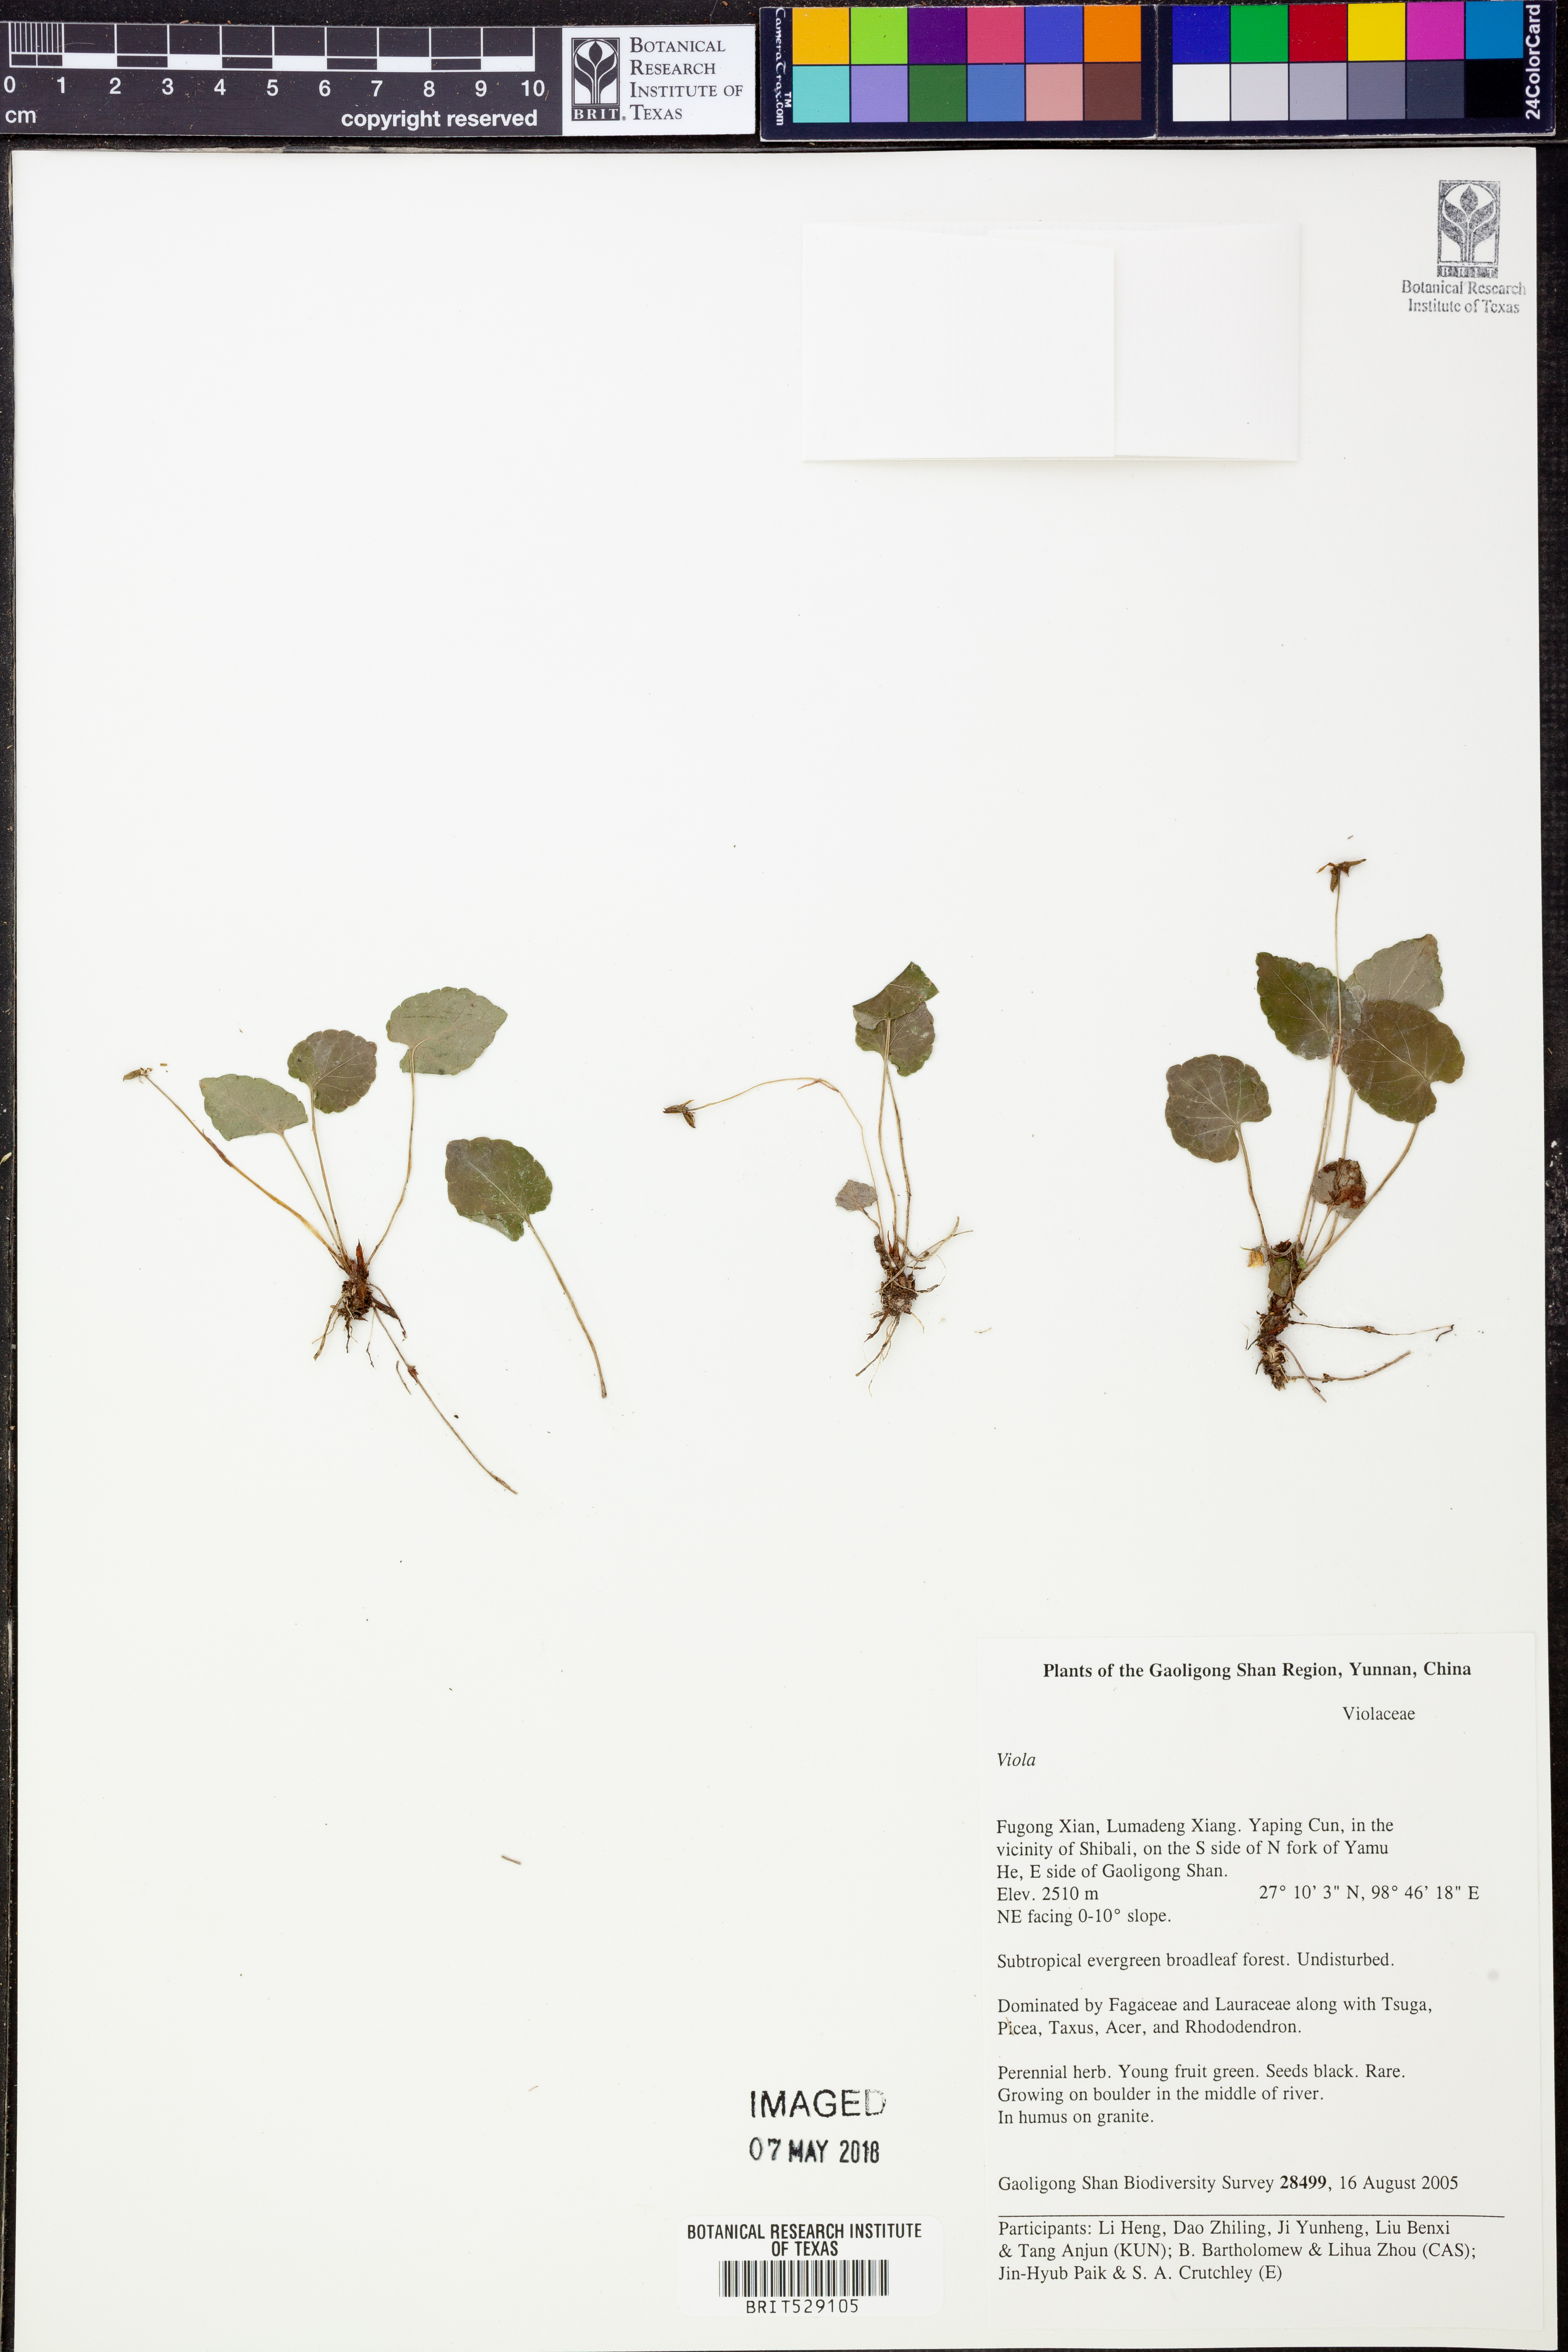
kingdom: Plantae
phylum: Tracheophyta
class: Magnoliopsida
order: Malpighiales
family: Violaceae
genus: Viola
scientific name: Viola
